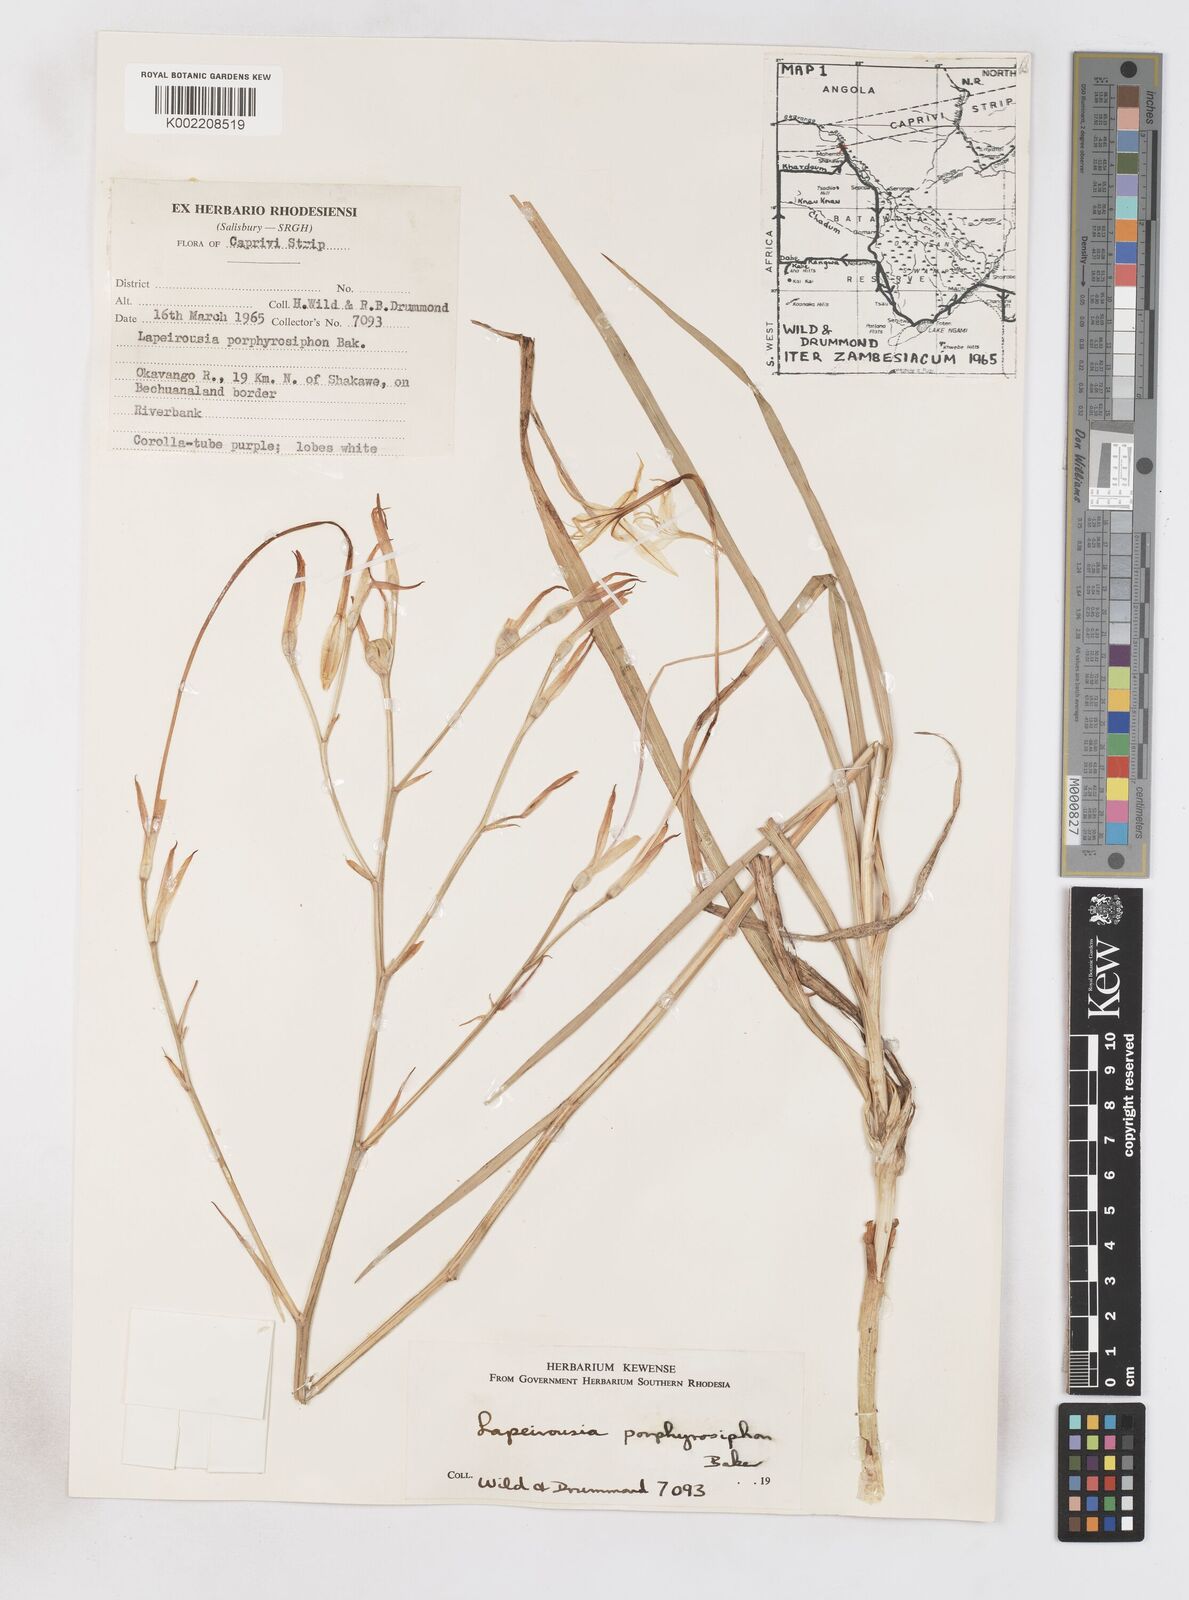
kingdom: Plantae
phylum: Tracheophyta
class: Liliopsida
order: Asparagales
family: Iridaceae
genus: Afrosolen
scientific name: Afrosolen schimperi
